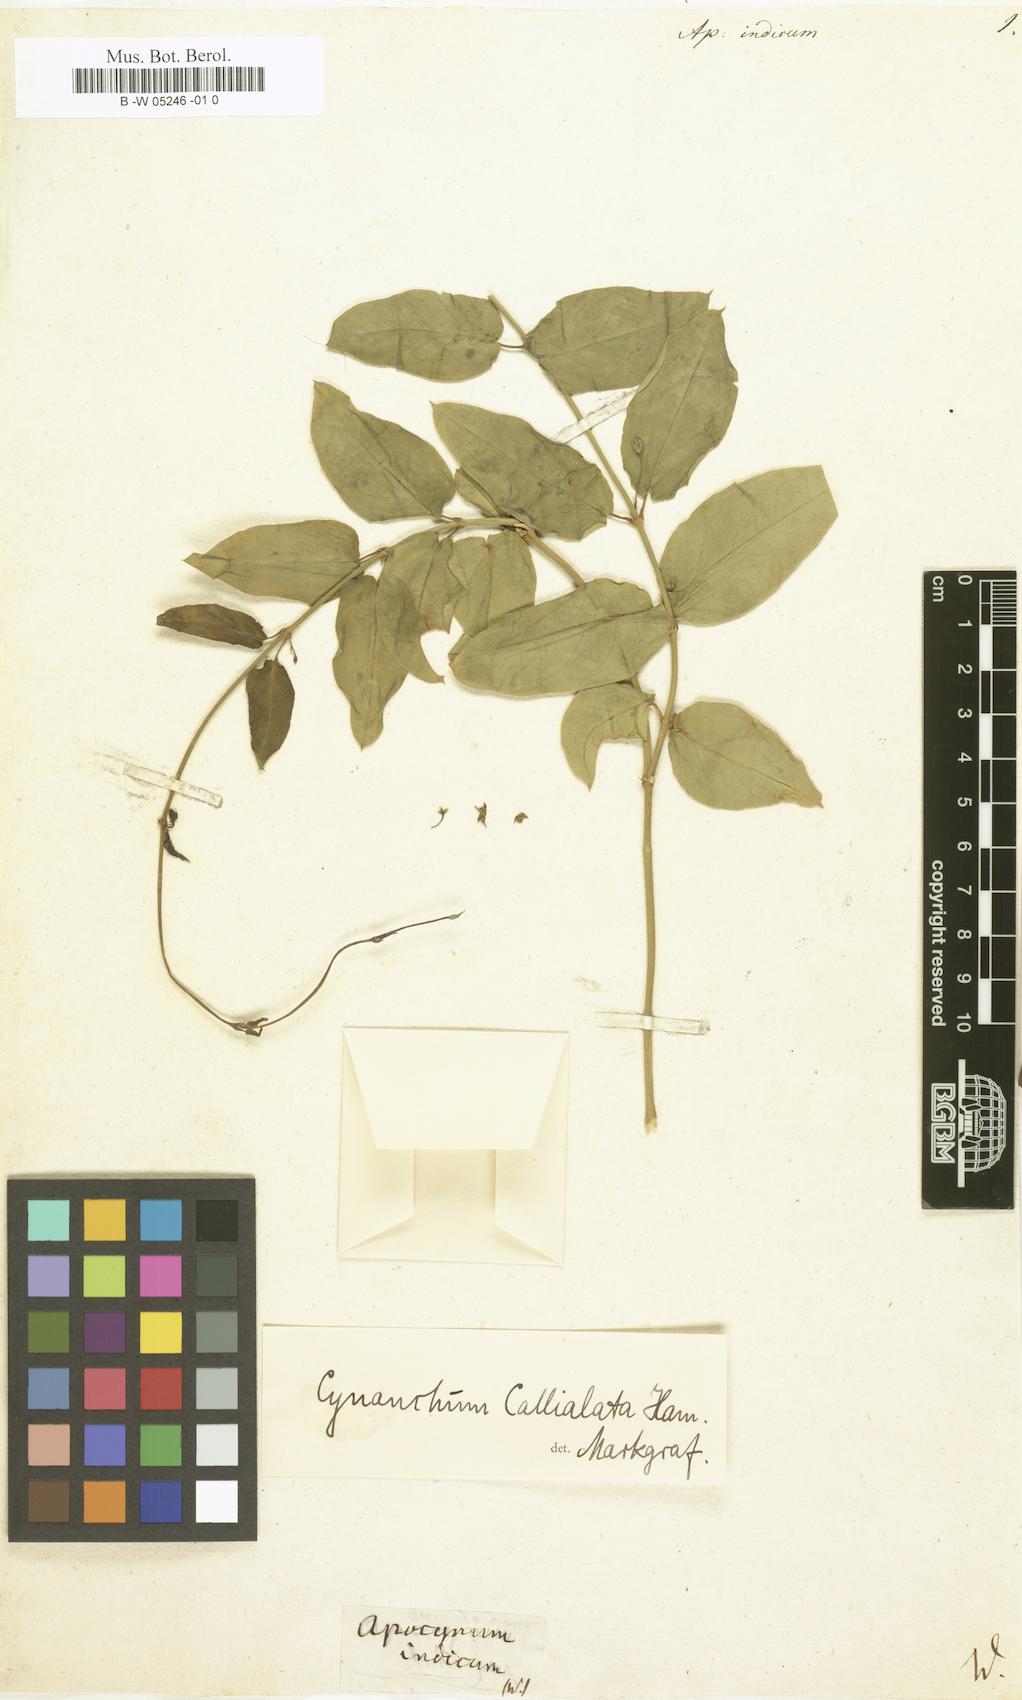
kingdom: Plantae
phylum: Tracheophyta
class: Magnoliopsida
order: Gentianales
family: Apocynaceae
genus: Vincetoxicum
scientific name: Vincetoxicum confusum
